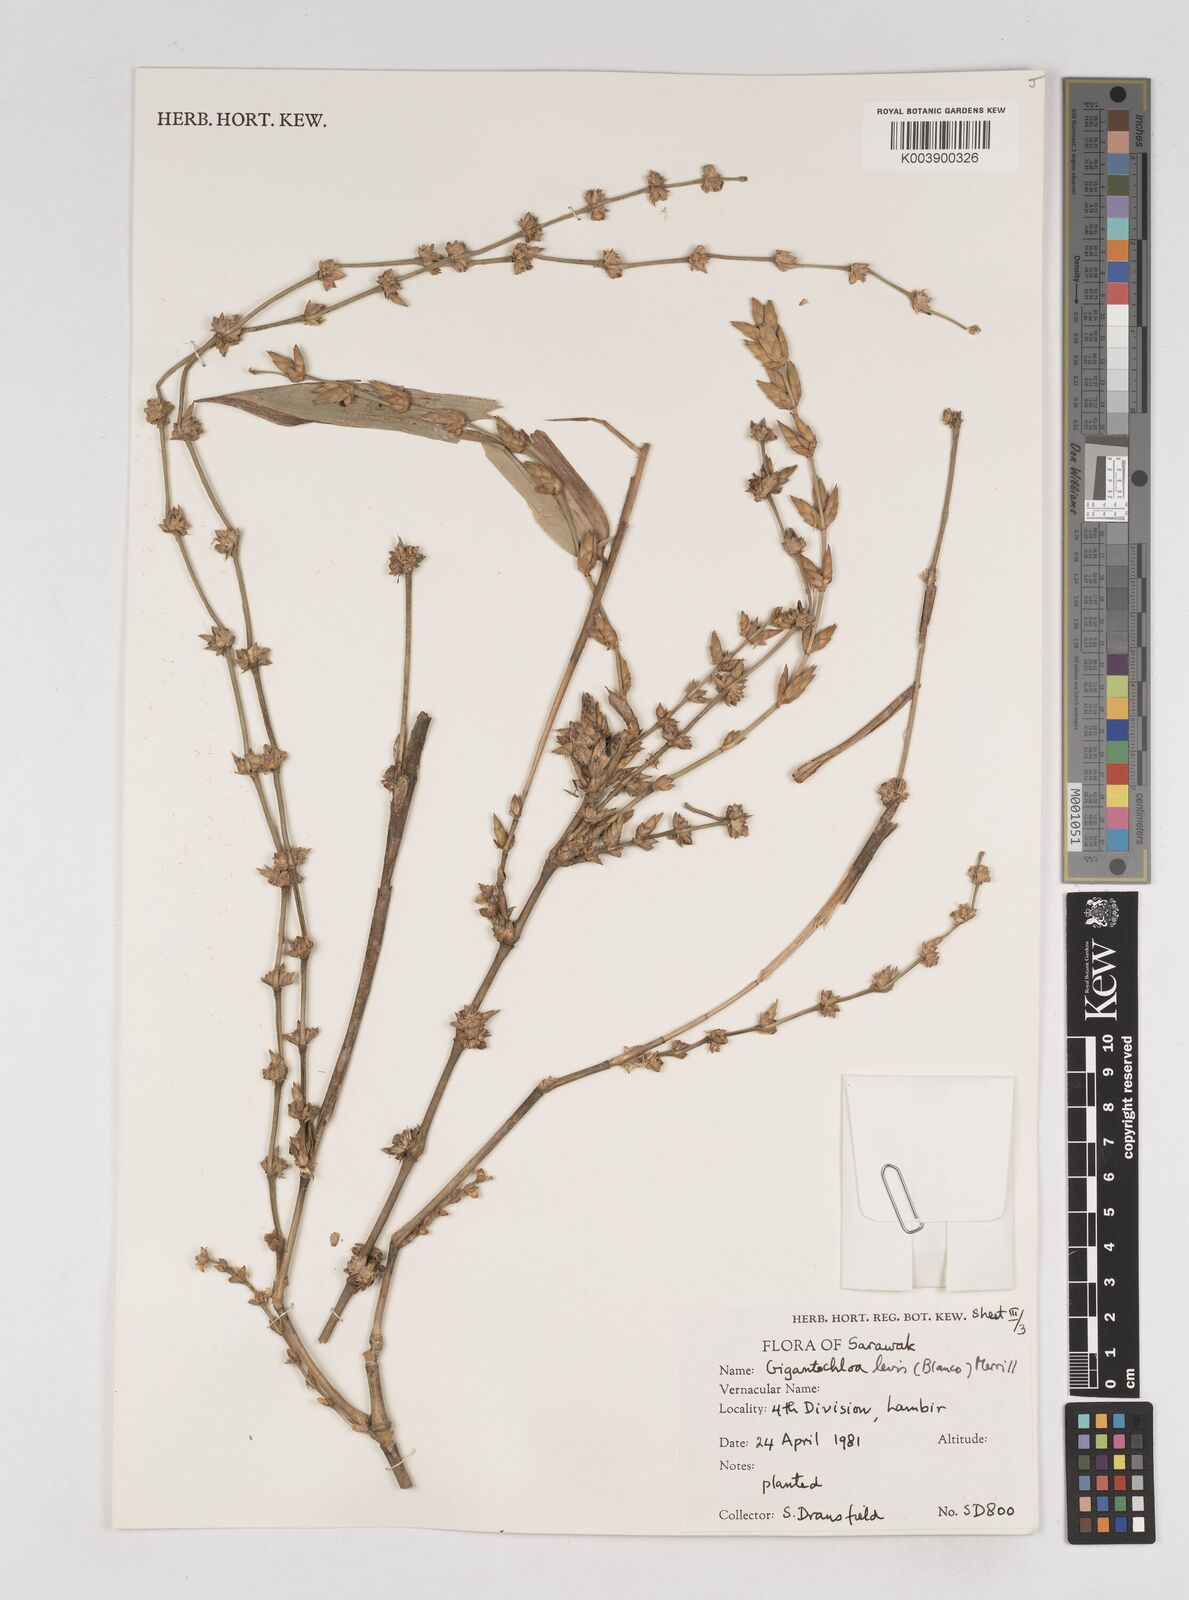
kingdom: Plantae
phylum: Tracheophyta
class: Liliopsida
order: Poales
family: Poaceae
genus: Gigantochloa
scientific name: Gigantochloa levis
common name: Smooth-shoot gigantochloa
